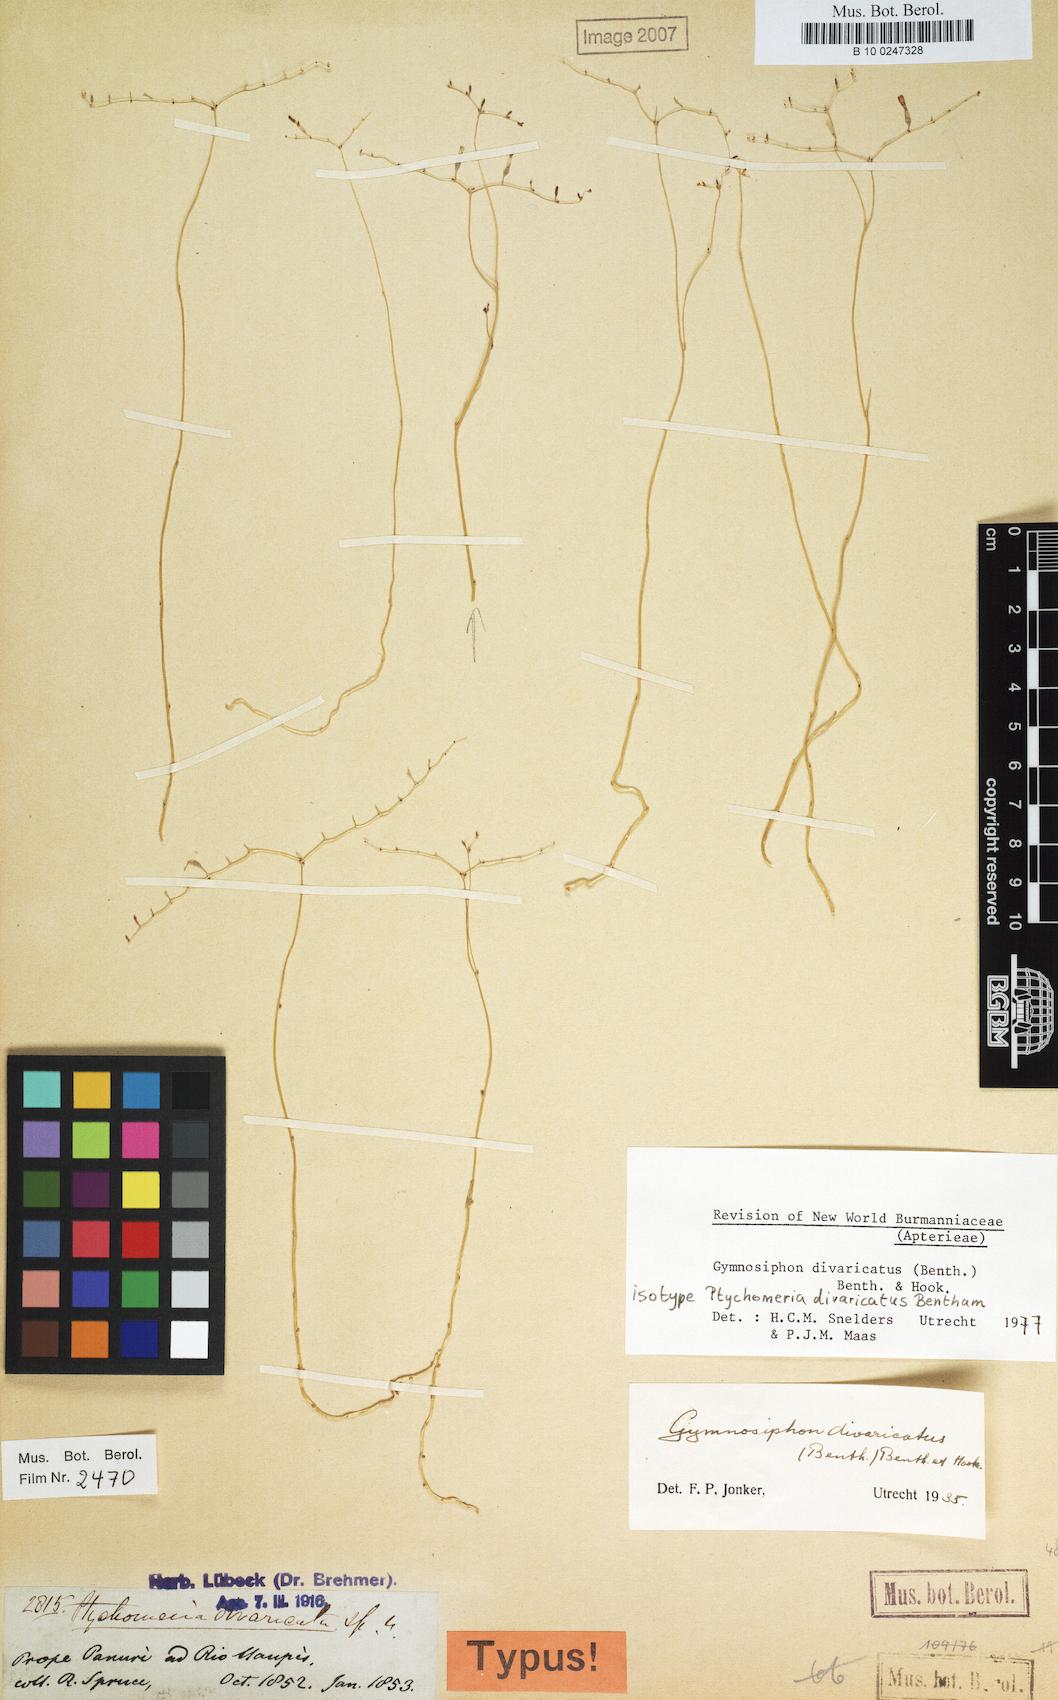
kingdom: Plantae
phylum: Tracheophyta
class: Liliopsida
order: Dioscoreales
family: Burmanniaceae
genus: Gymnosiphon
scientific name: Gymnosiphon divaricatus
